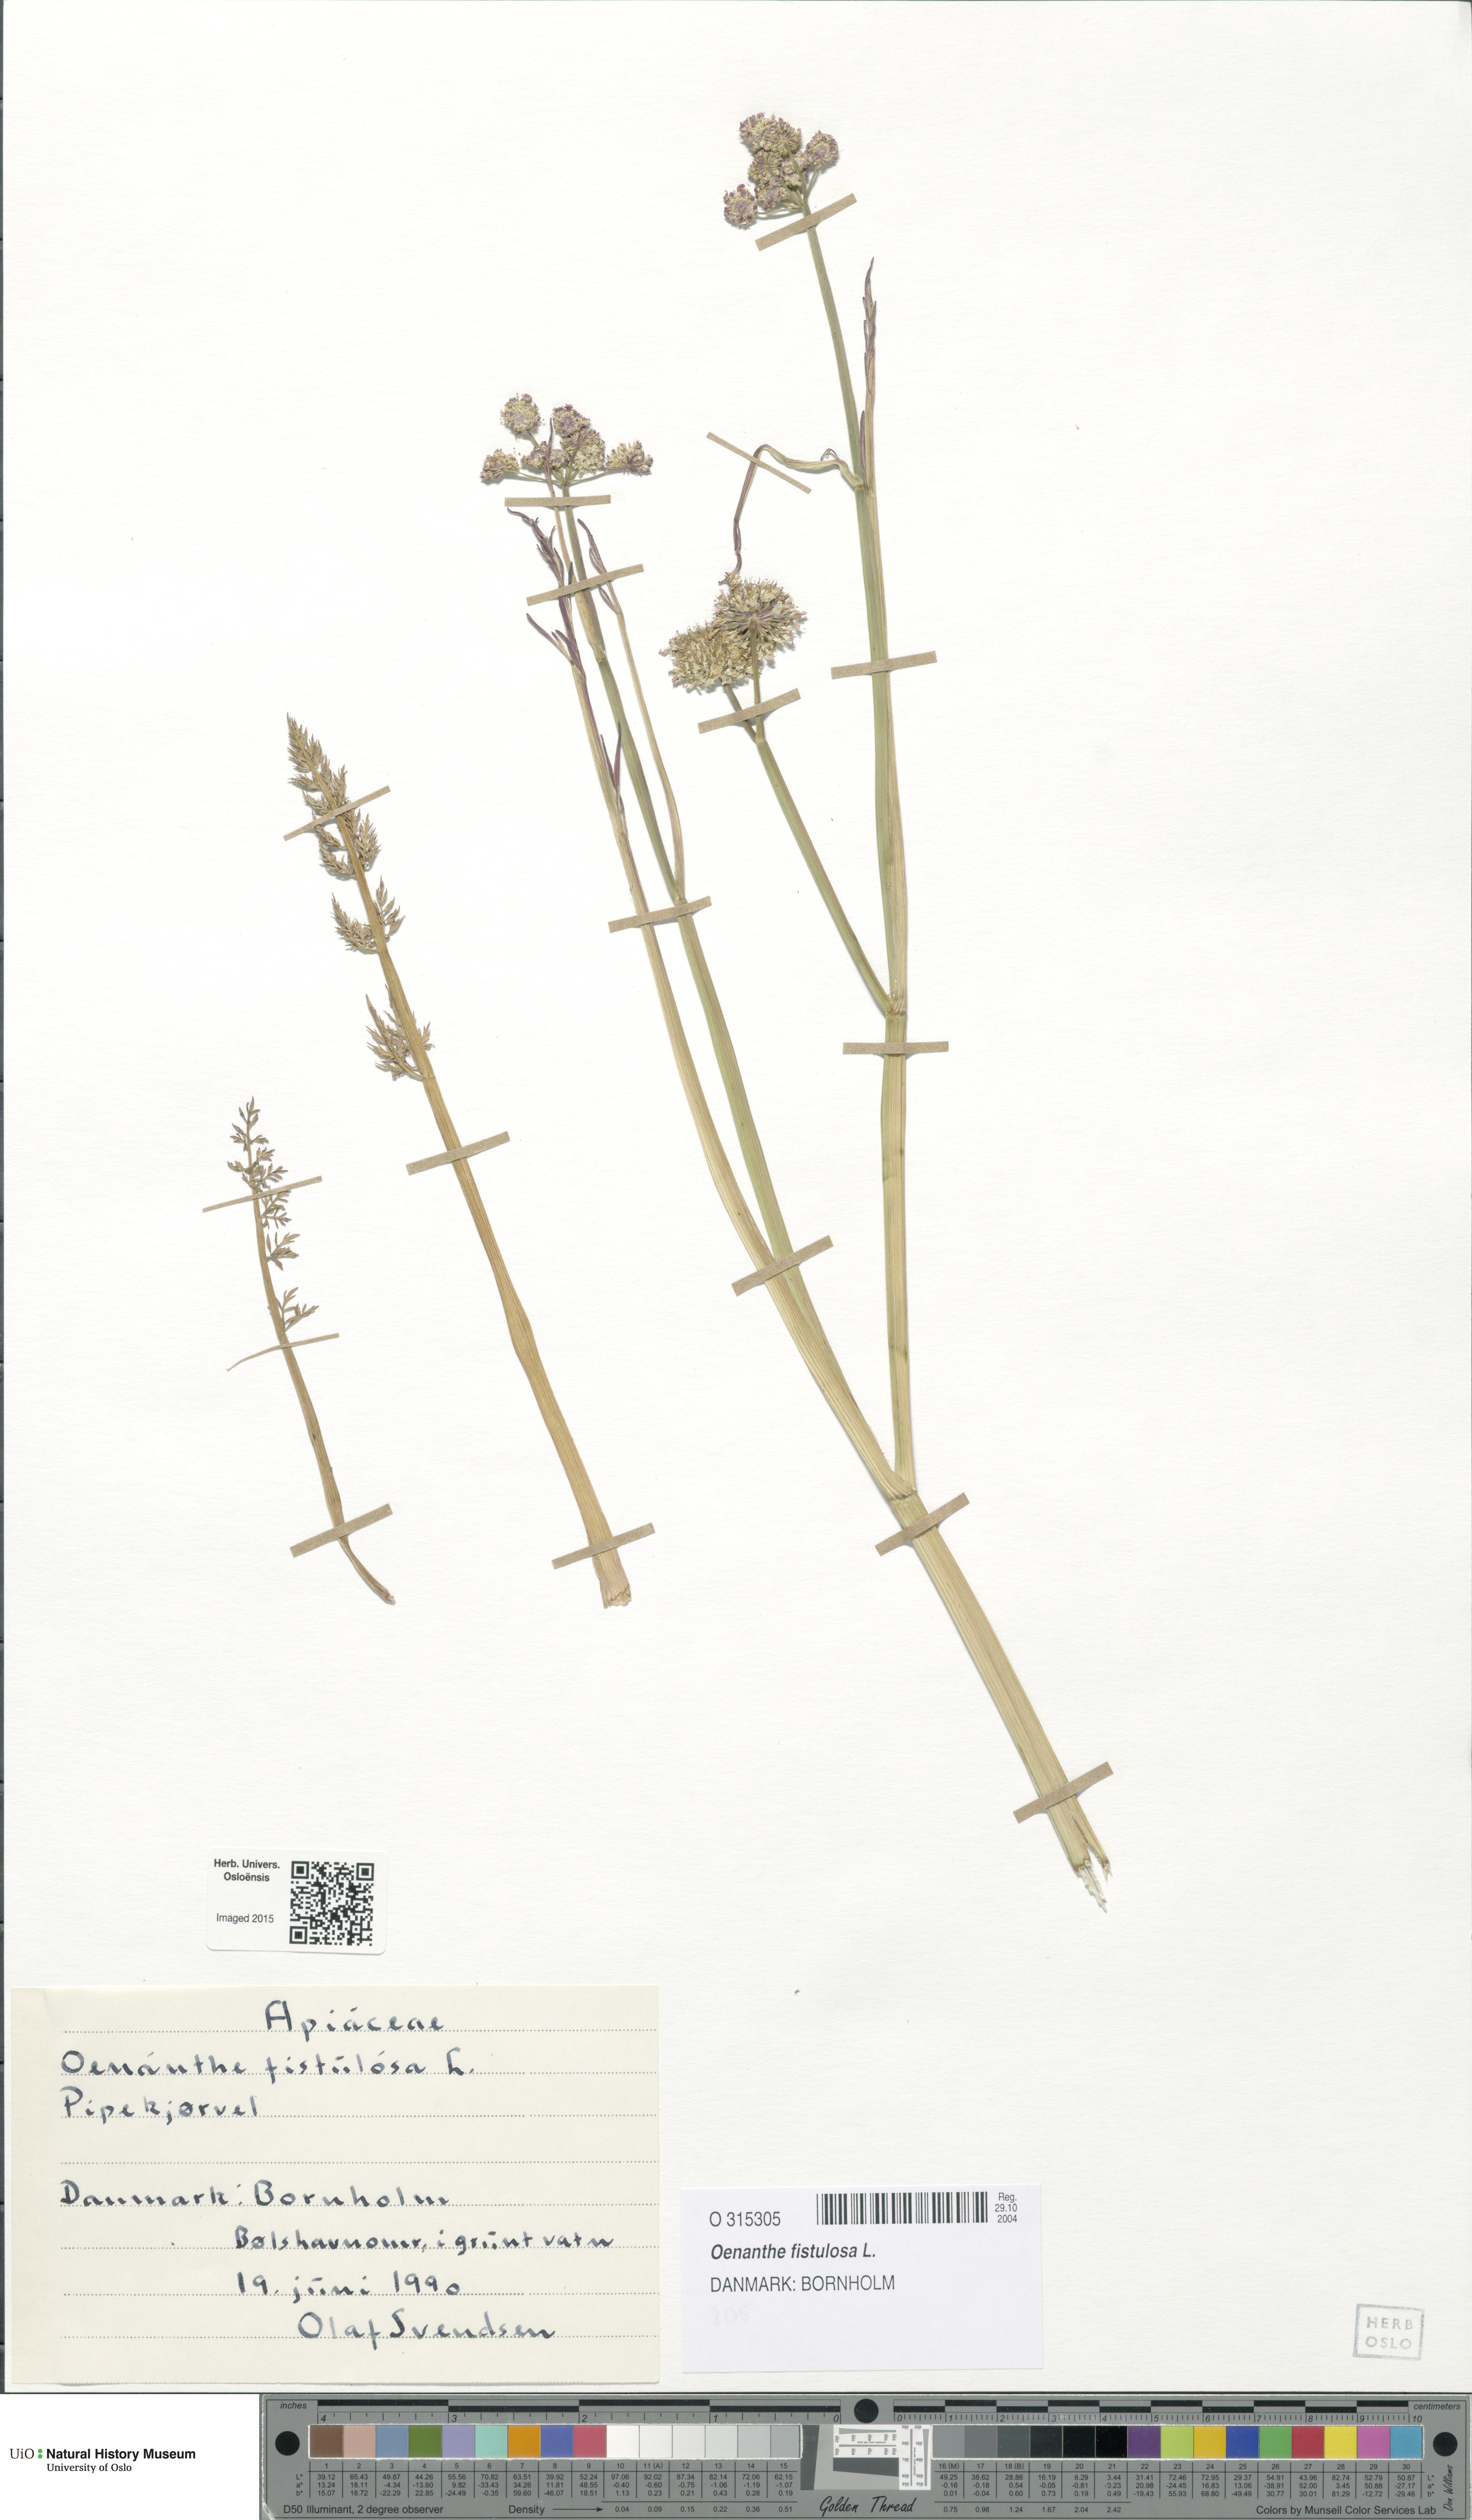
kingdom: Plantae
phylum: Tracheophyta
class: Magnoliopsida
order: Apiales
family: Apiaceae
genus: Oenanthe
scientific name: Oenanthe fistulosa
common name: Tubular water-dropwort
